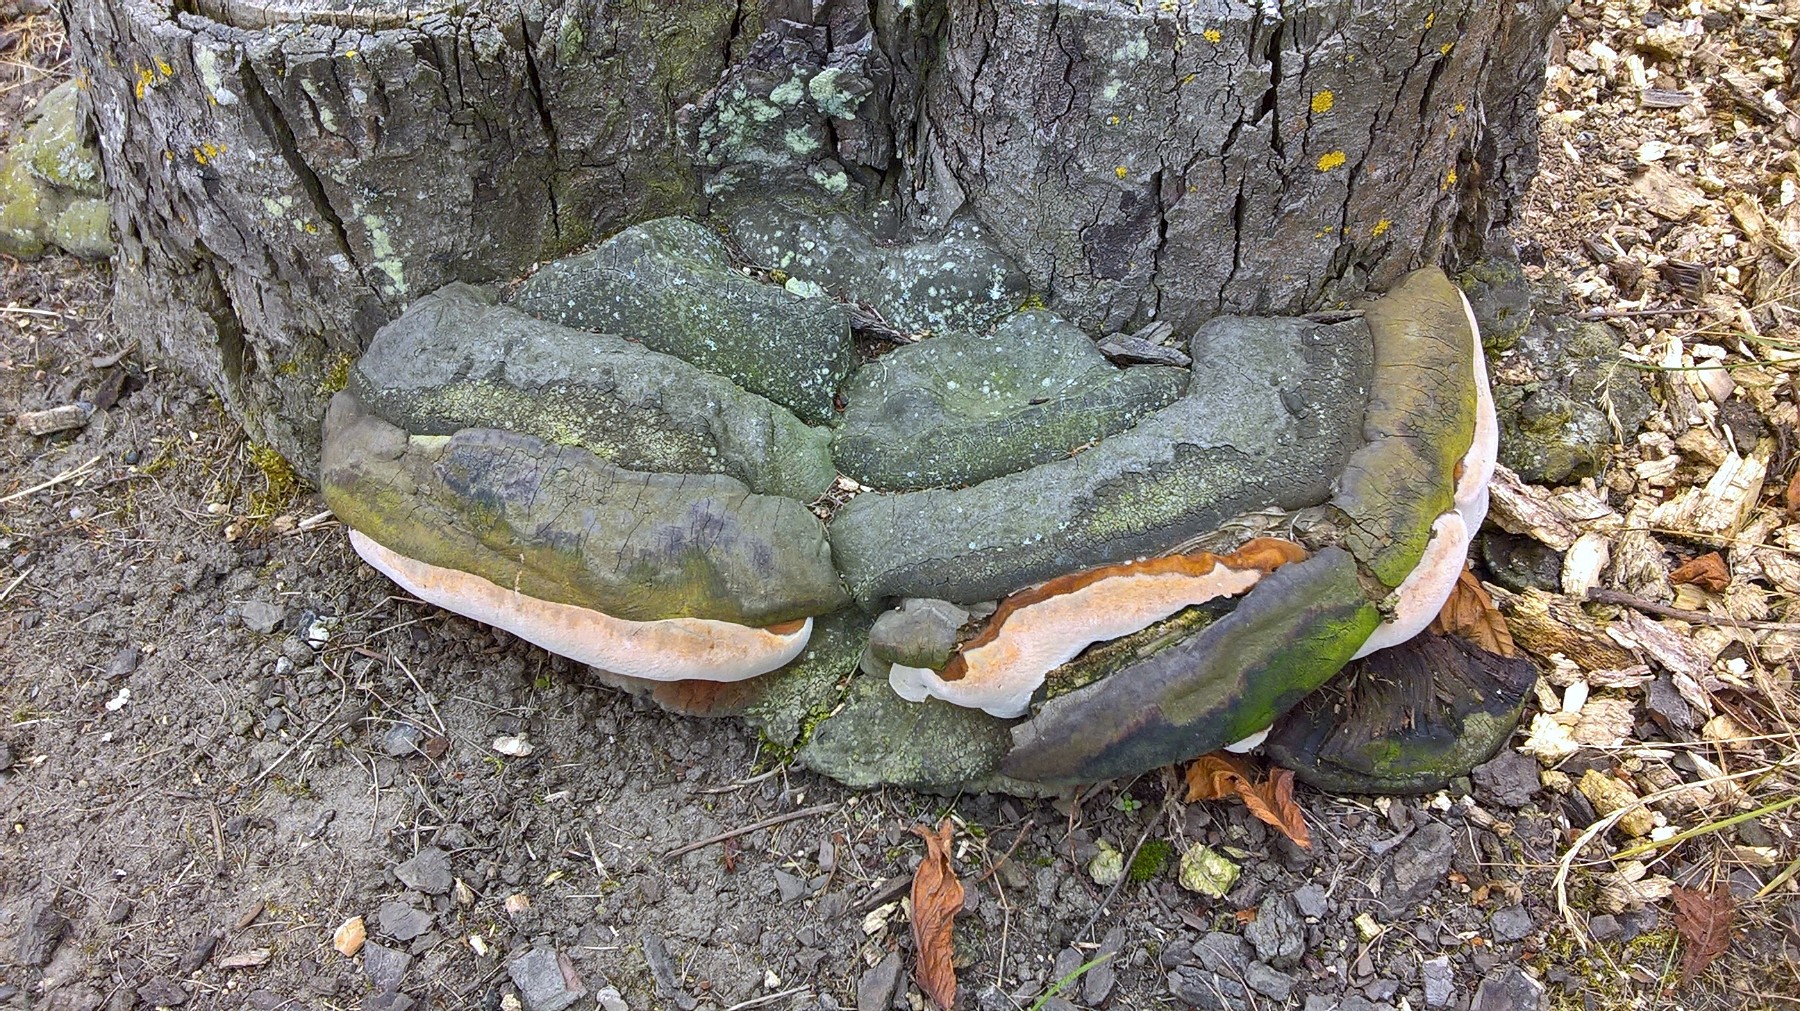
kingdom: Fungi
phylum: Basidiomycota
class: Agaricomycetes
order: Polyporales
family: Polyporaceae
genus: Ganoderma
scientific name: Ganoderma adspersum
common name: grov lakporesvamp
